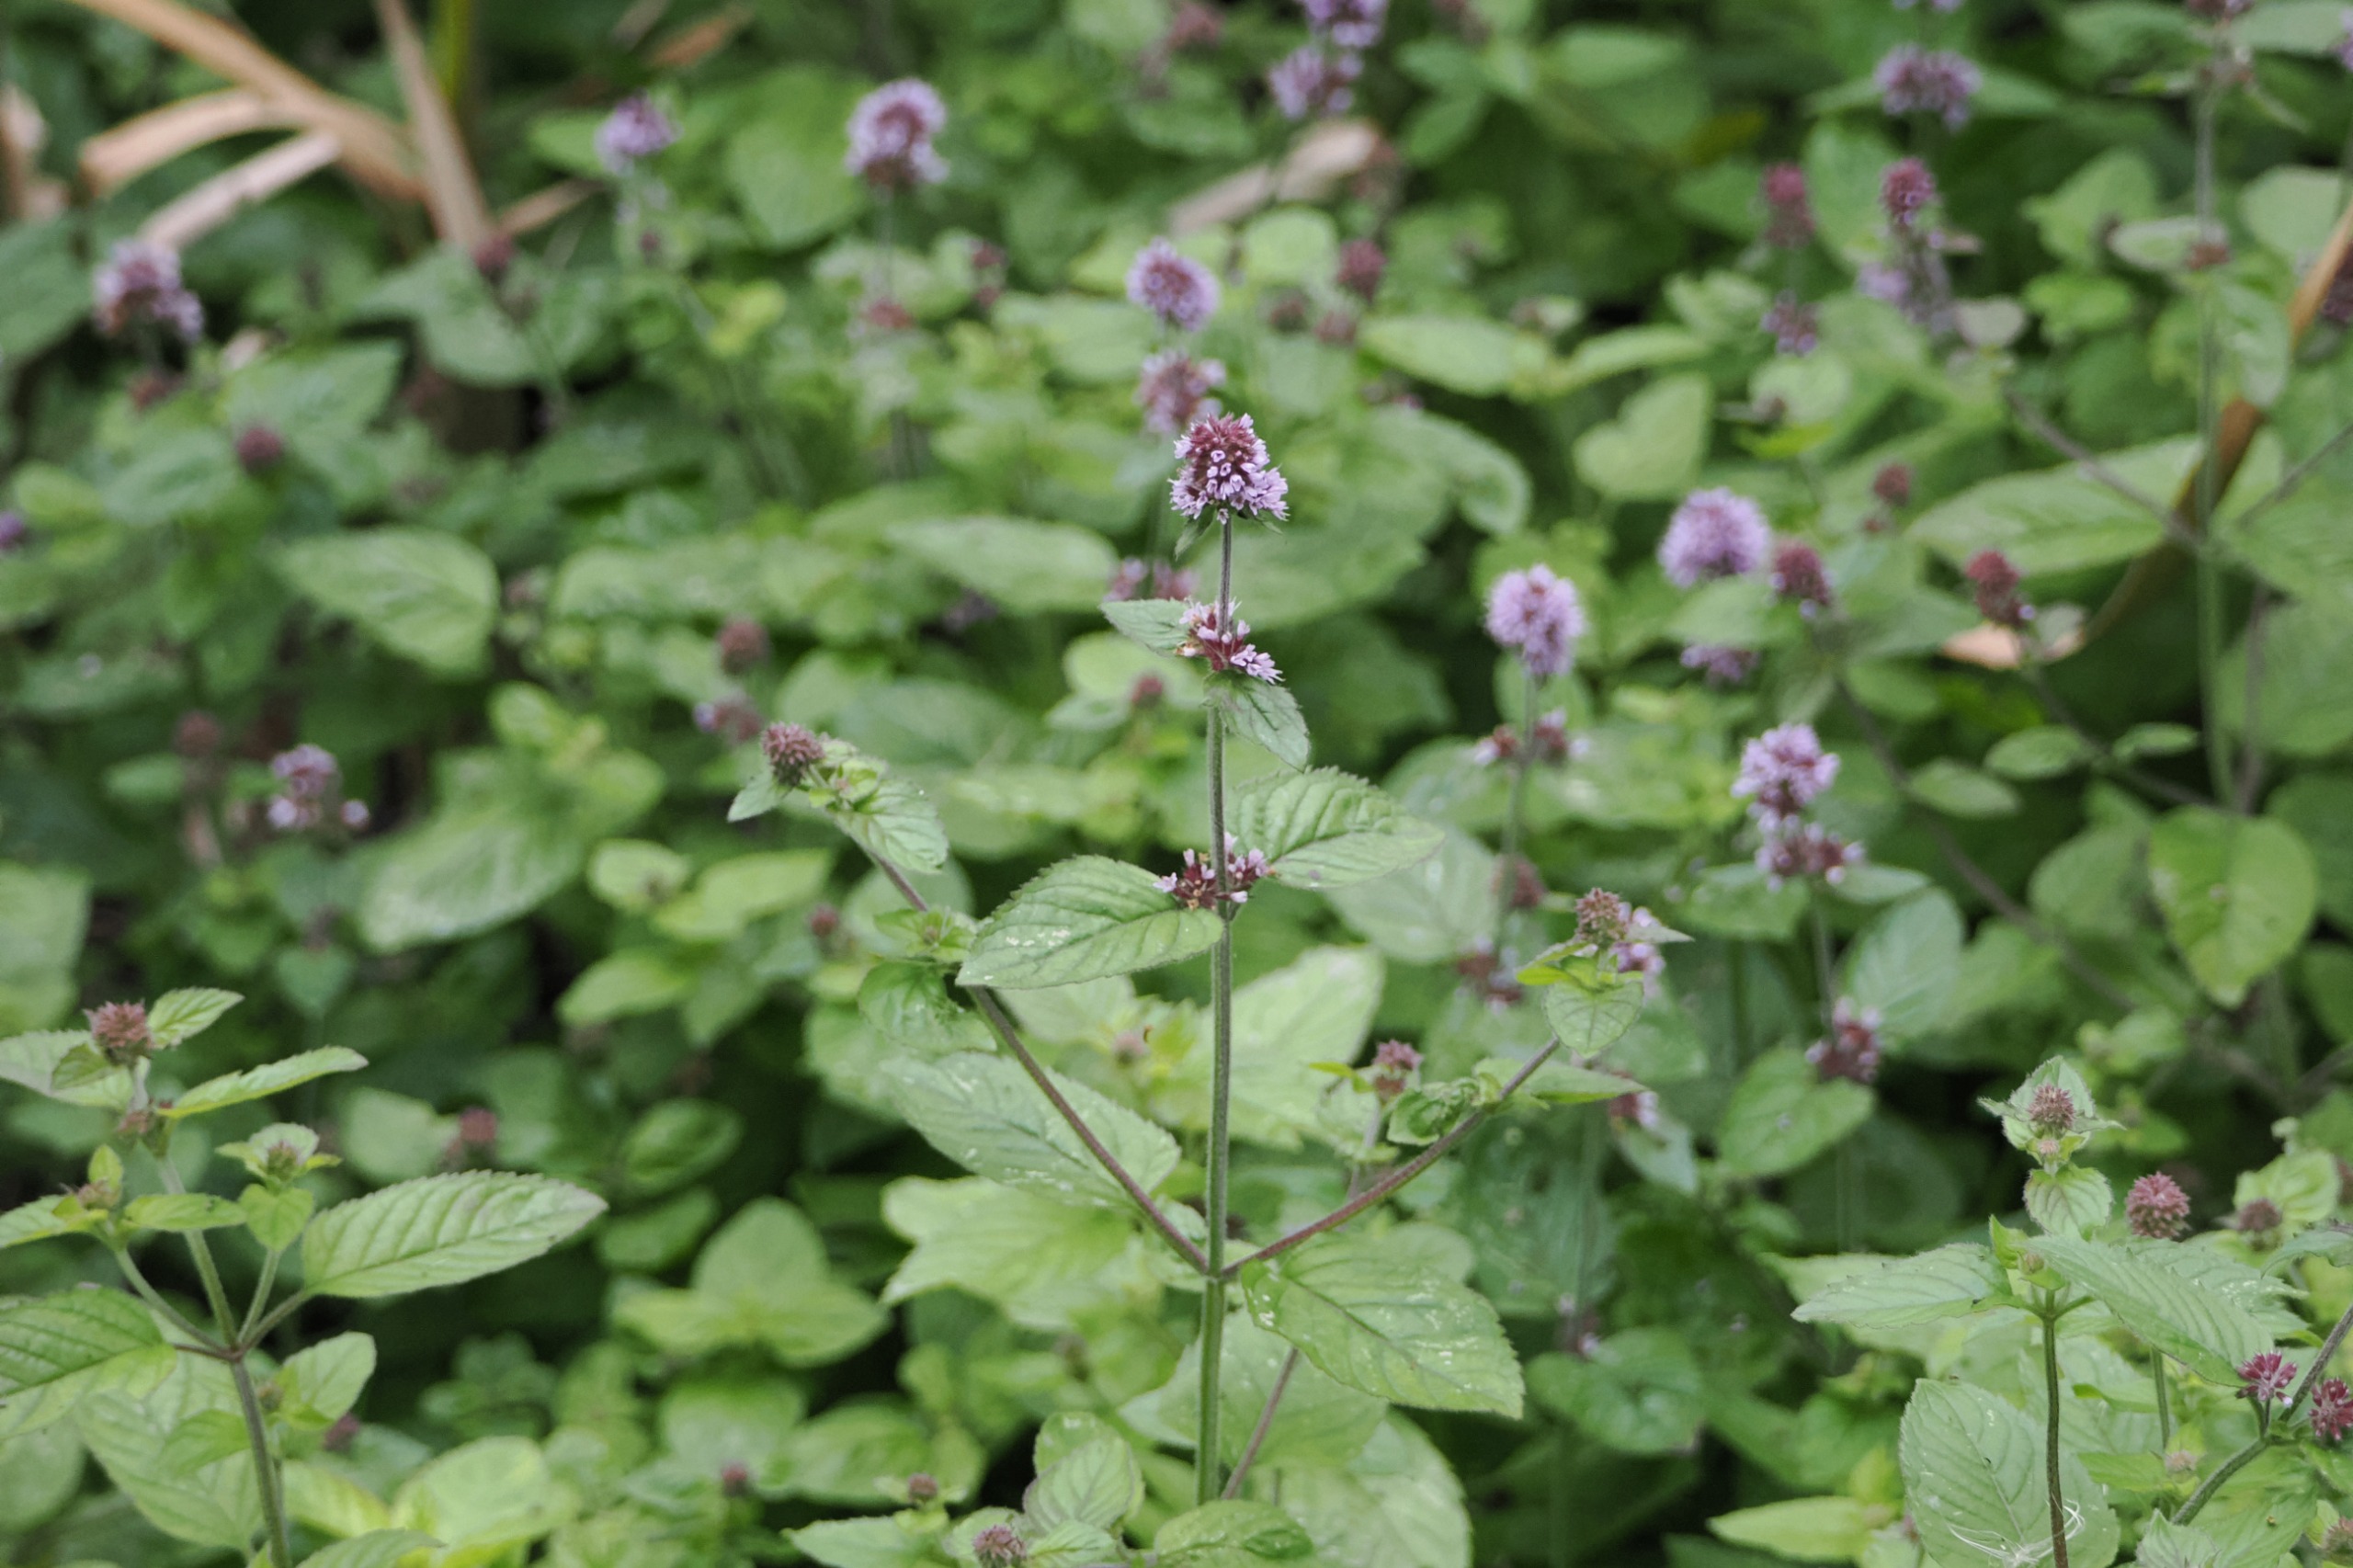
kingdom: Plantae
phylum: Tracheophyta
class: Magnoliopsida
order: Lamiales
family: Lamiaceae
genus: Mentha
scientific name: Mentha aquatica
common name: Vand-mynte
